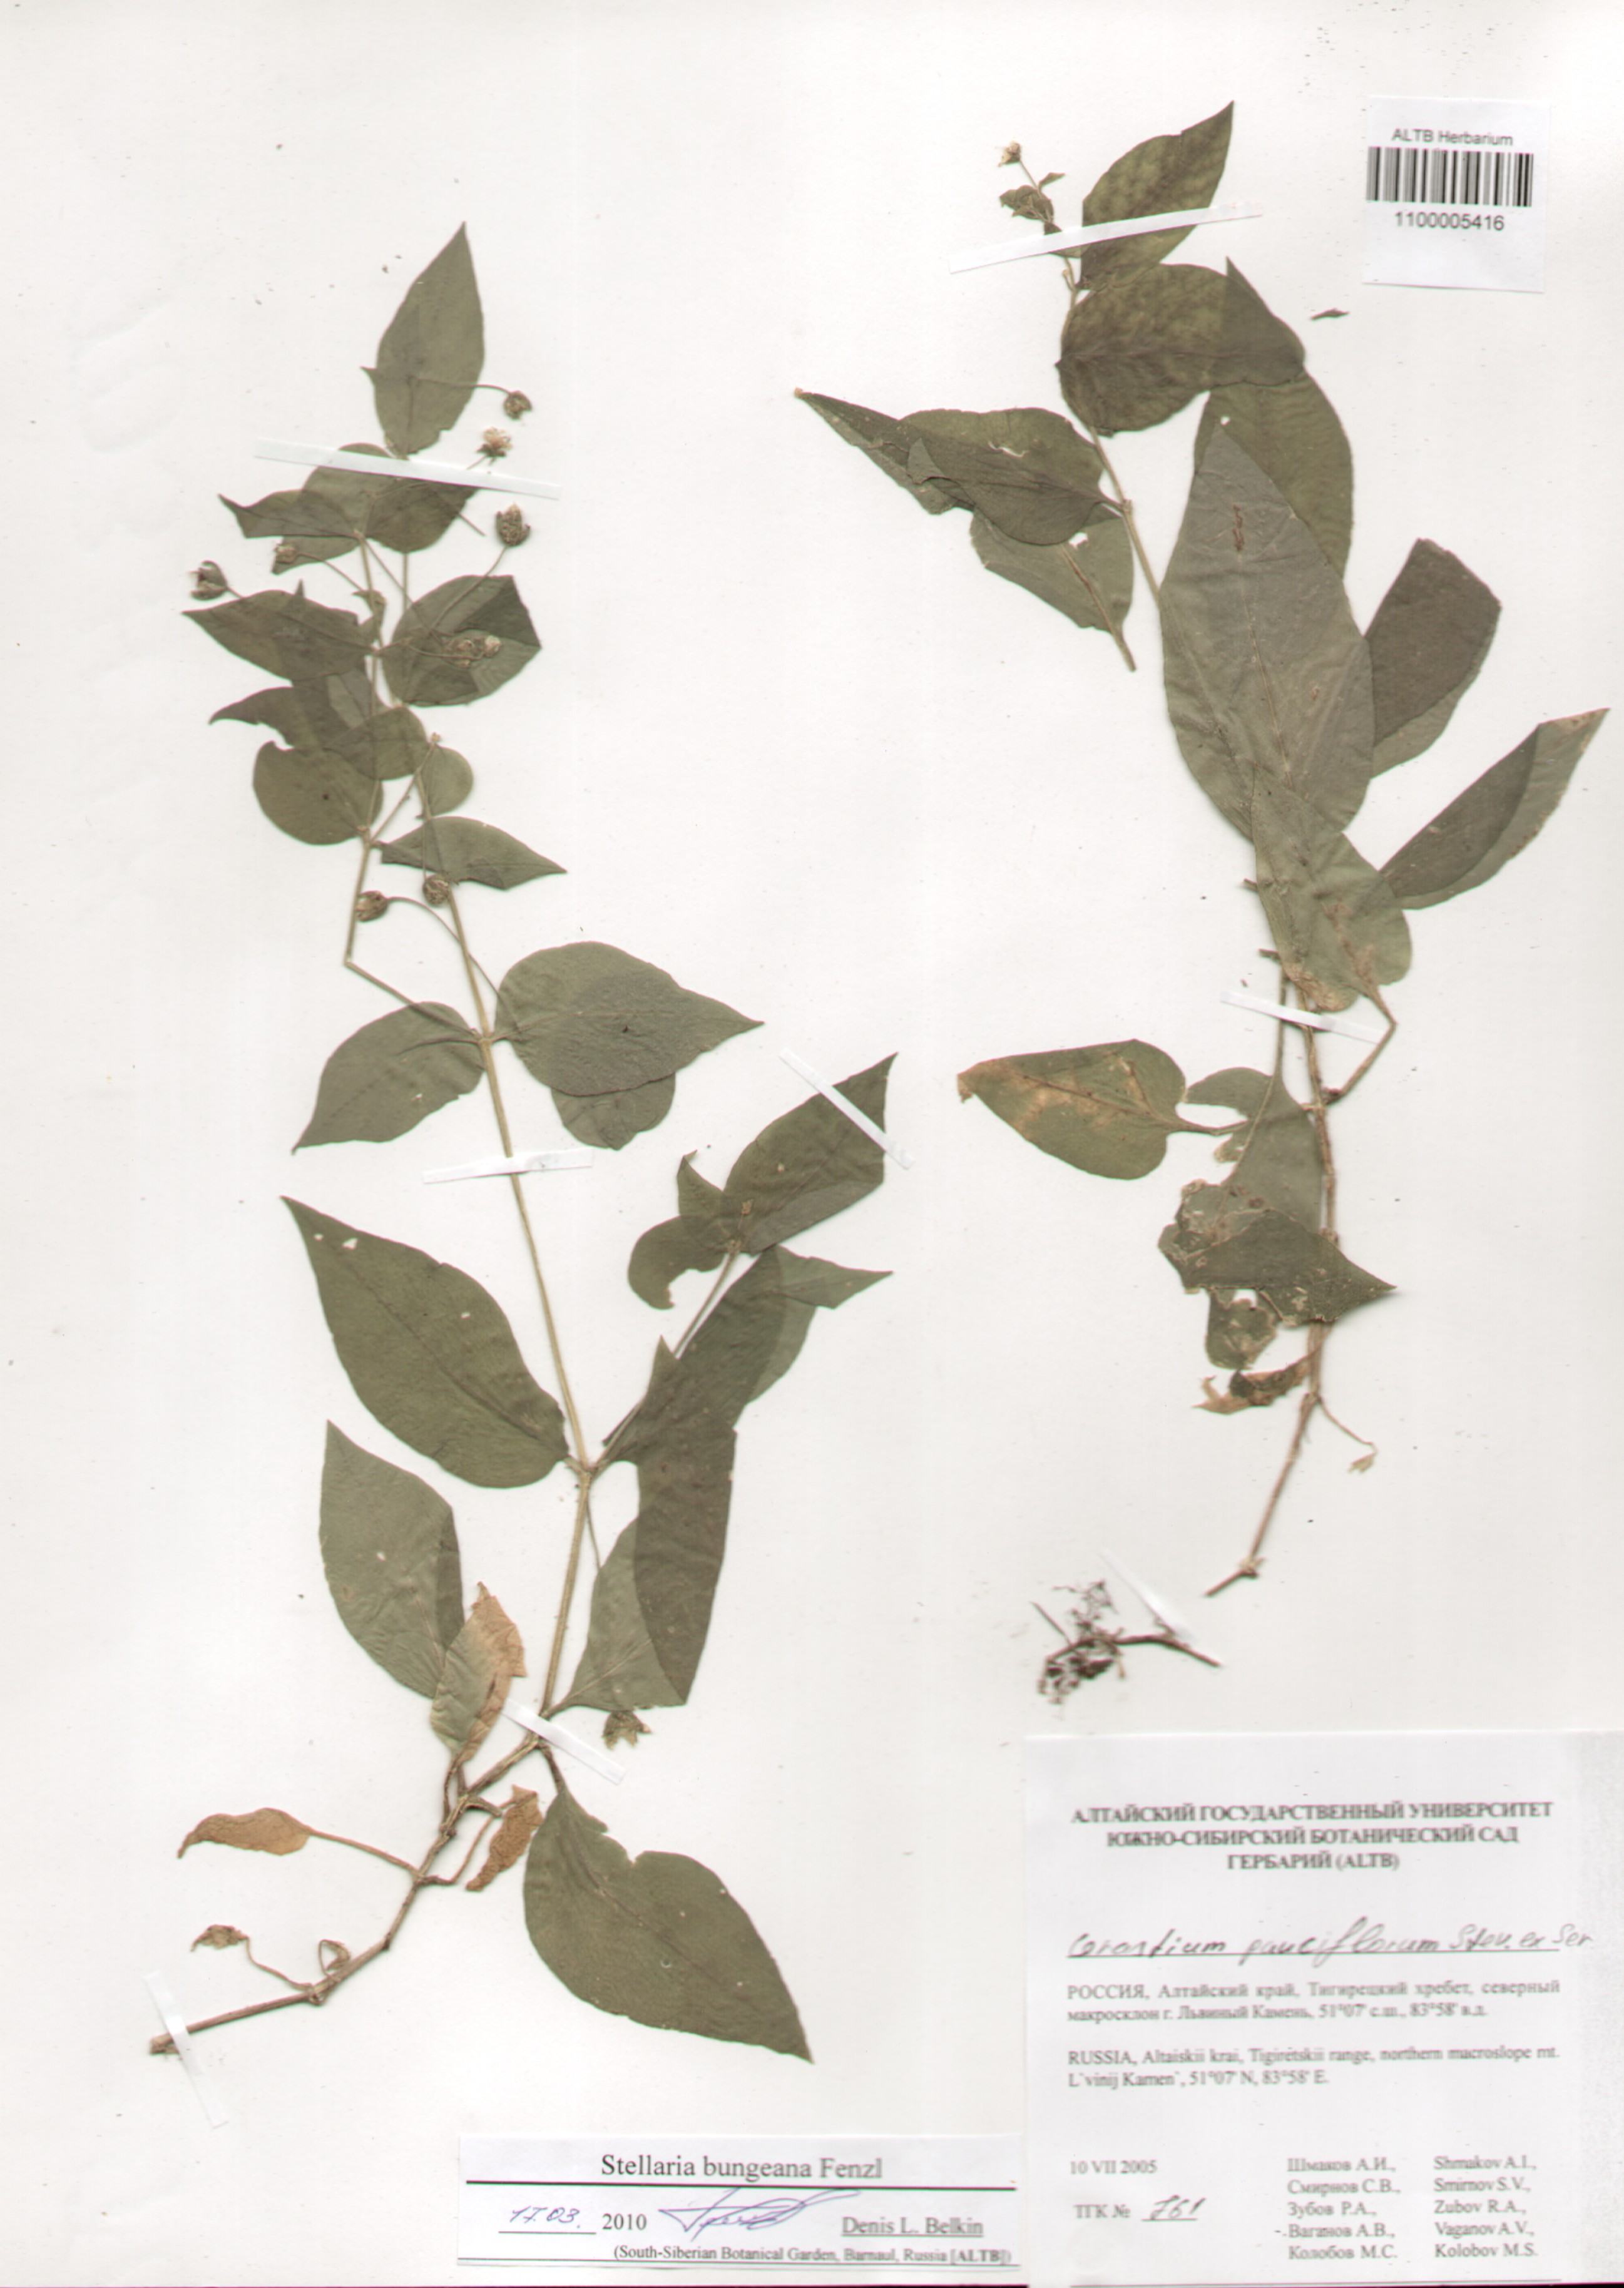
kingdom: Plantae
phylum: Tracheophyta
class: Magnoliopsida
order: Caryophyllales
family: Caryophyllaceae
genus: Stellaria
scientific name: Stellaria bungeana
